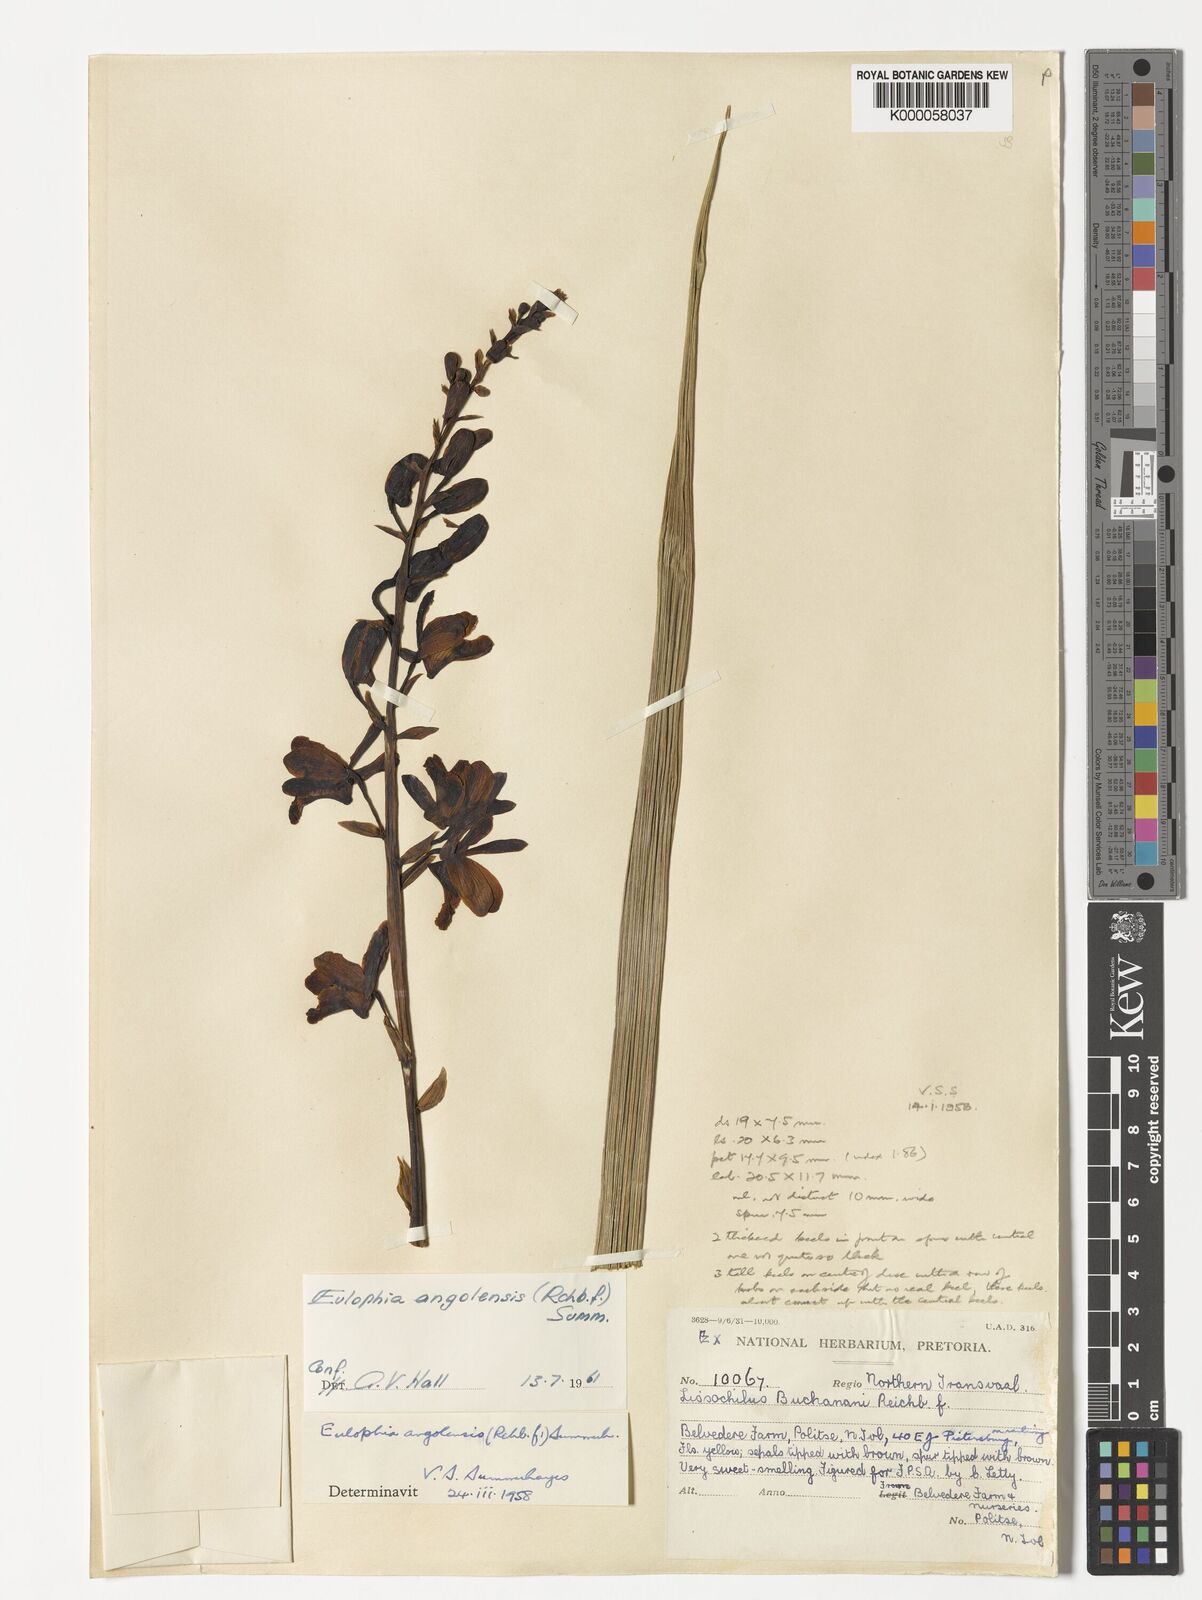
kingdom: Plantae
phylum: Tracheophyta
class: Liliopsida
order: Asparagales
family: Orchidaceae
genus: Eulophia
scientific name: Eulophia angolensis
